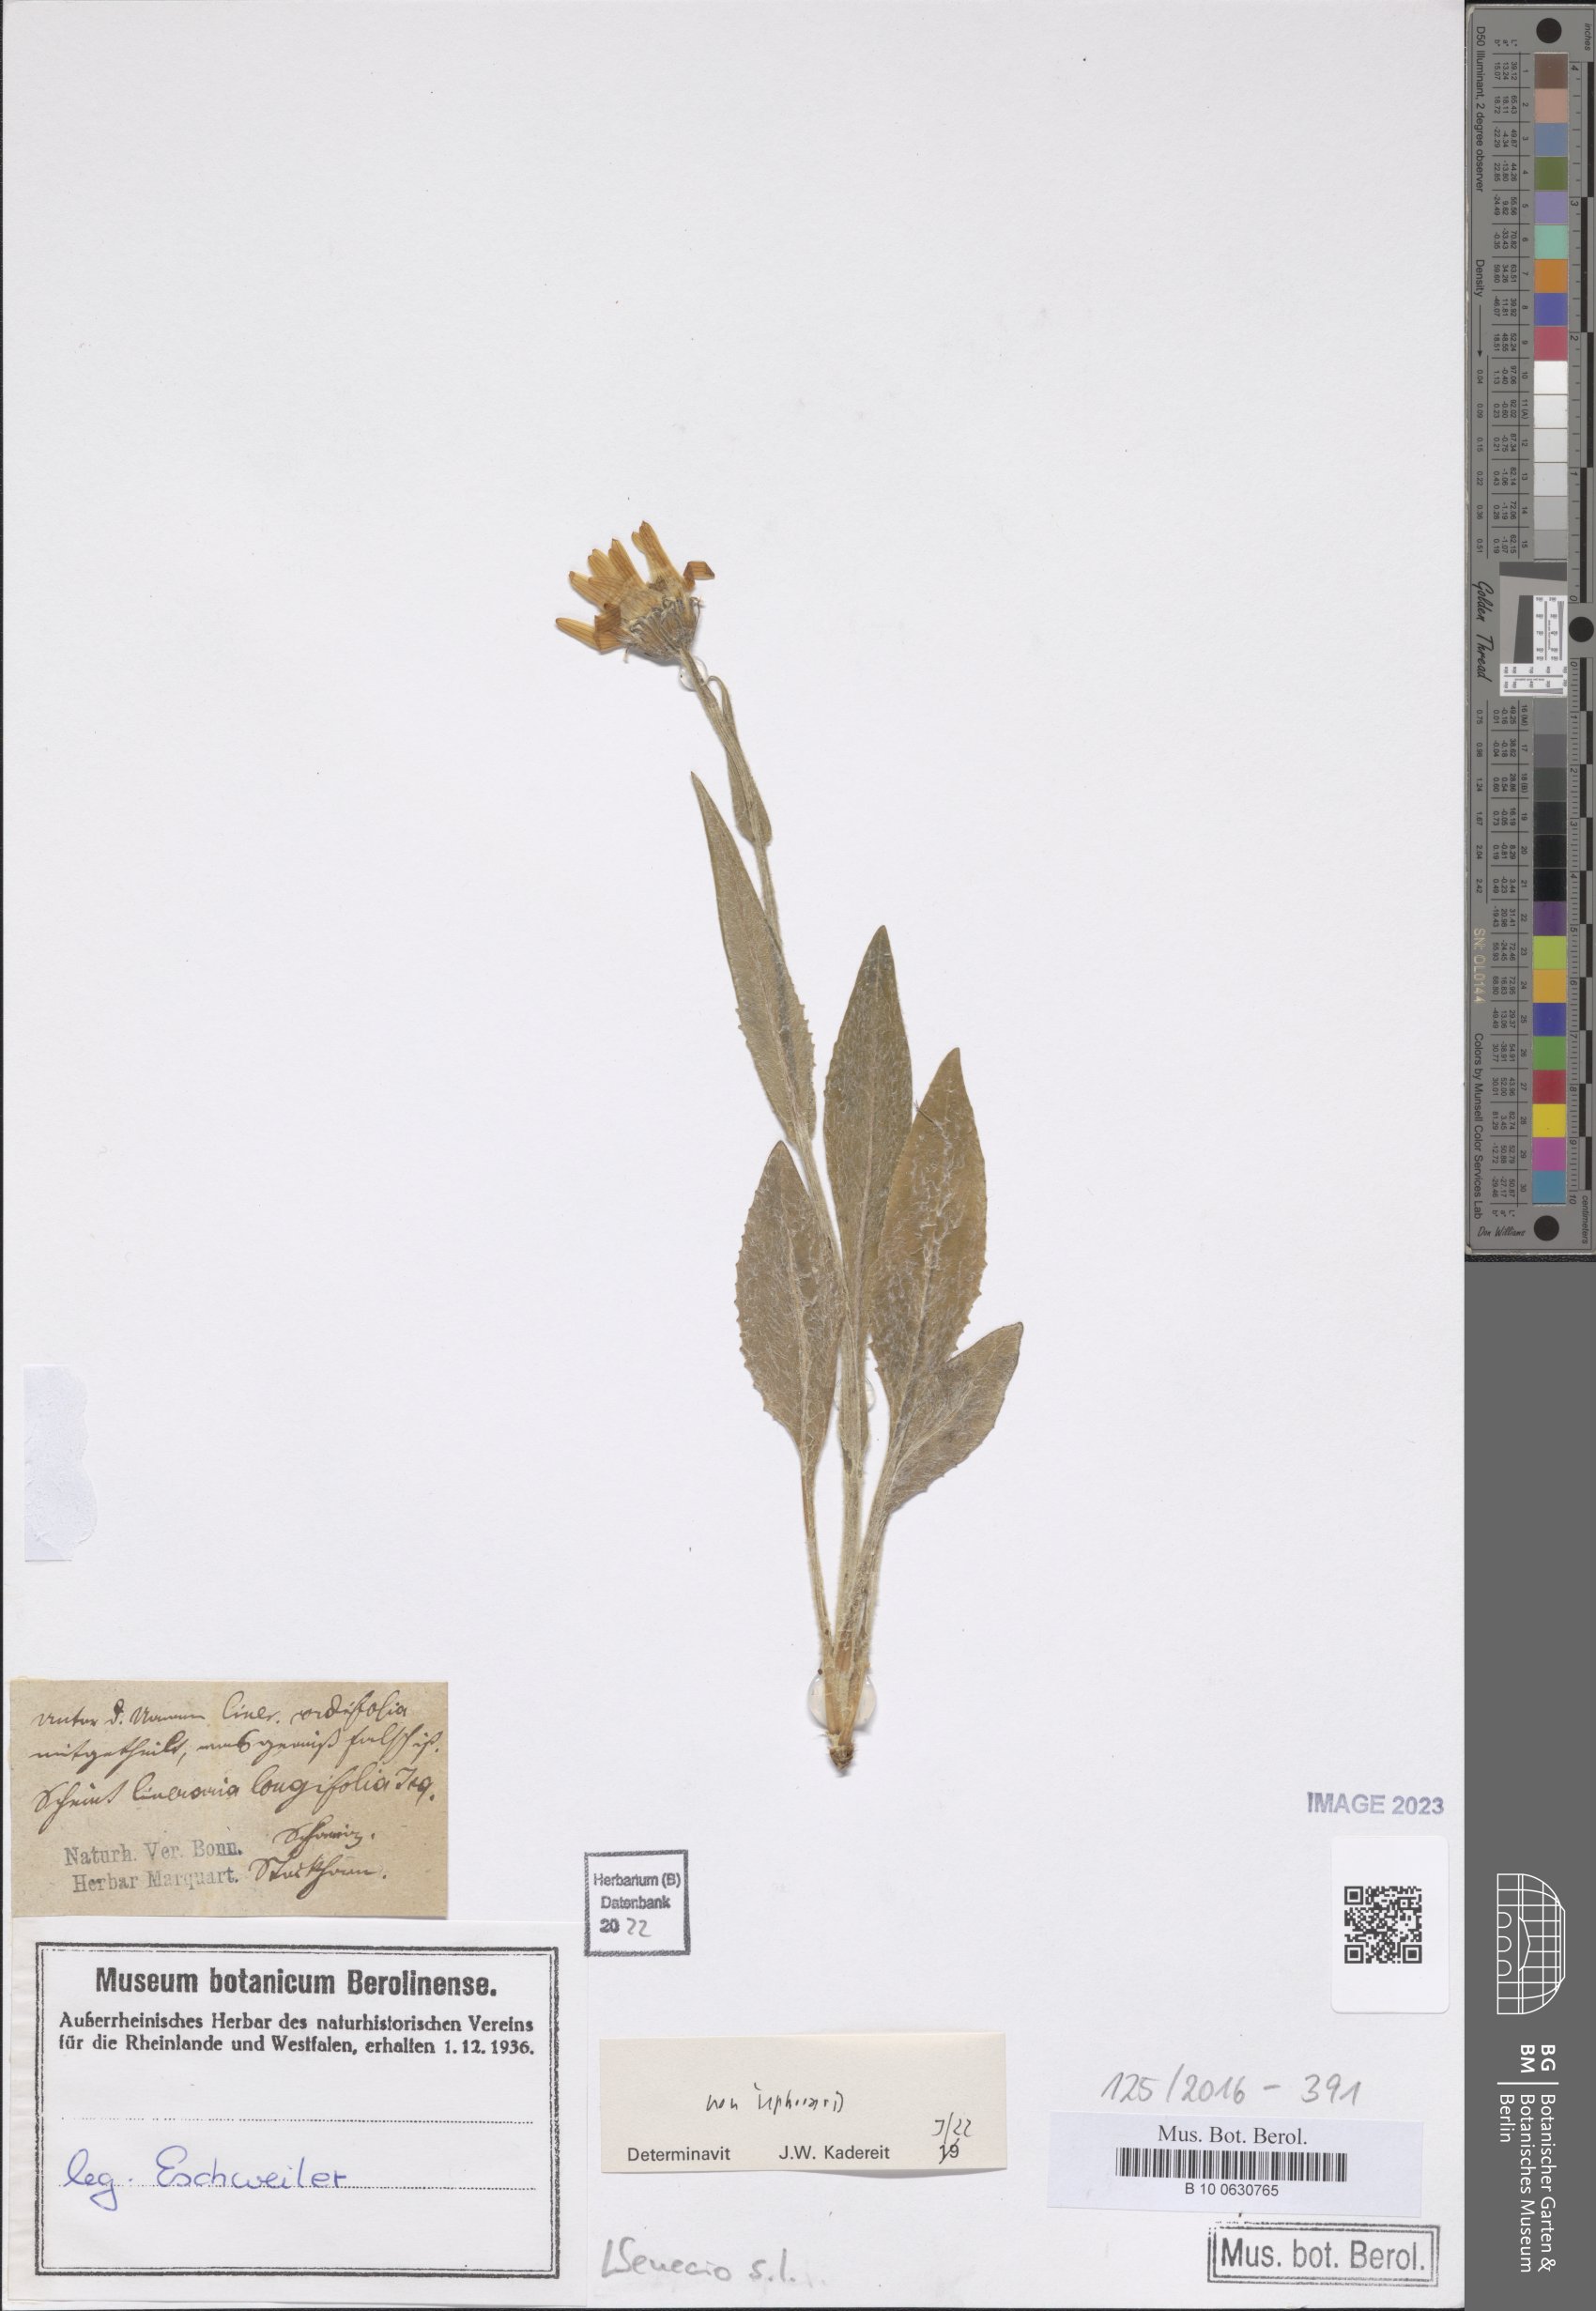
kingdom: Plantae
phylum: Tracheophyta
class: Magnoliopsida
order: Asterales
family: Asteraceae
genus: Senecio
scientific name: Senecio
